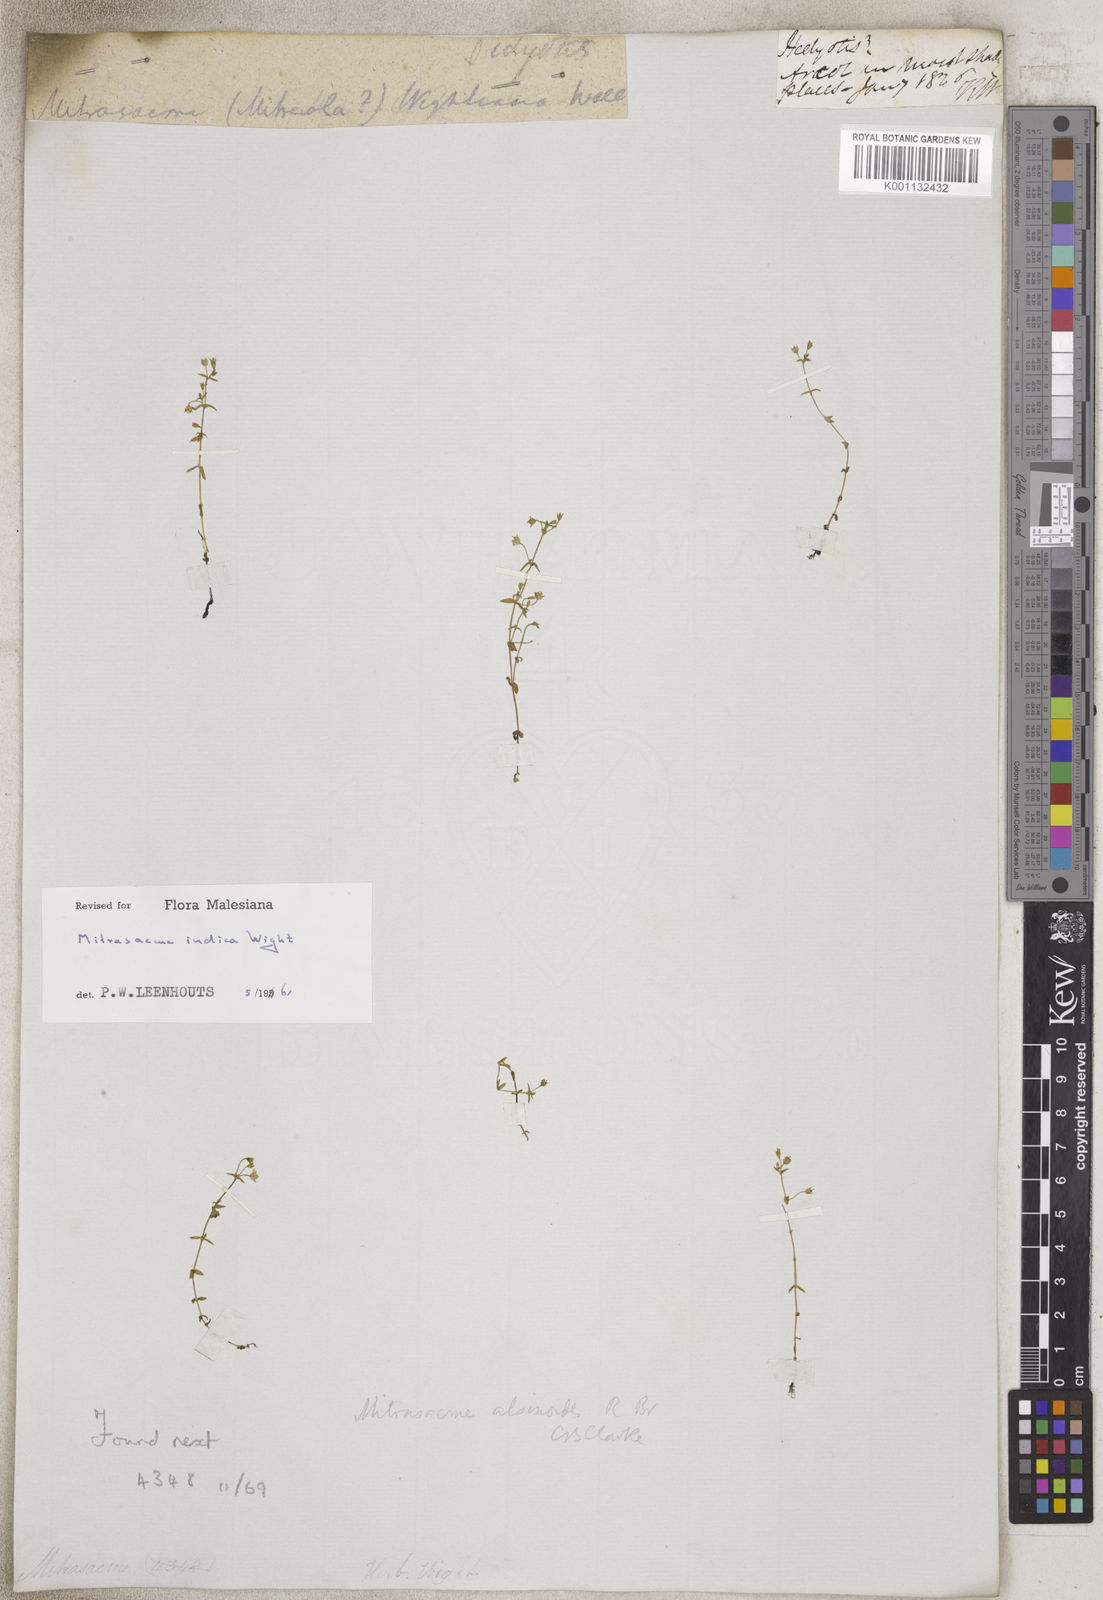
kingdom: Plantae
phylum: Tracheophyta
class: Magnoliopsida
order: Gentianales
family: Loganiaceae
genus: Mitrasacme
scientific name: Mitrasacme
